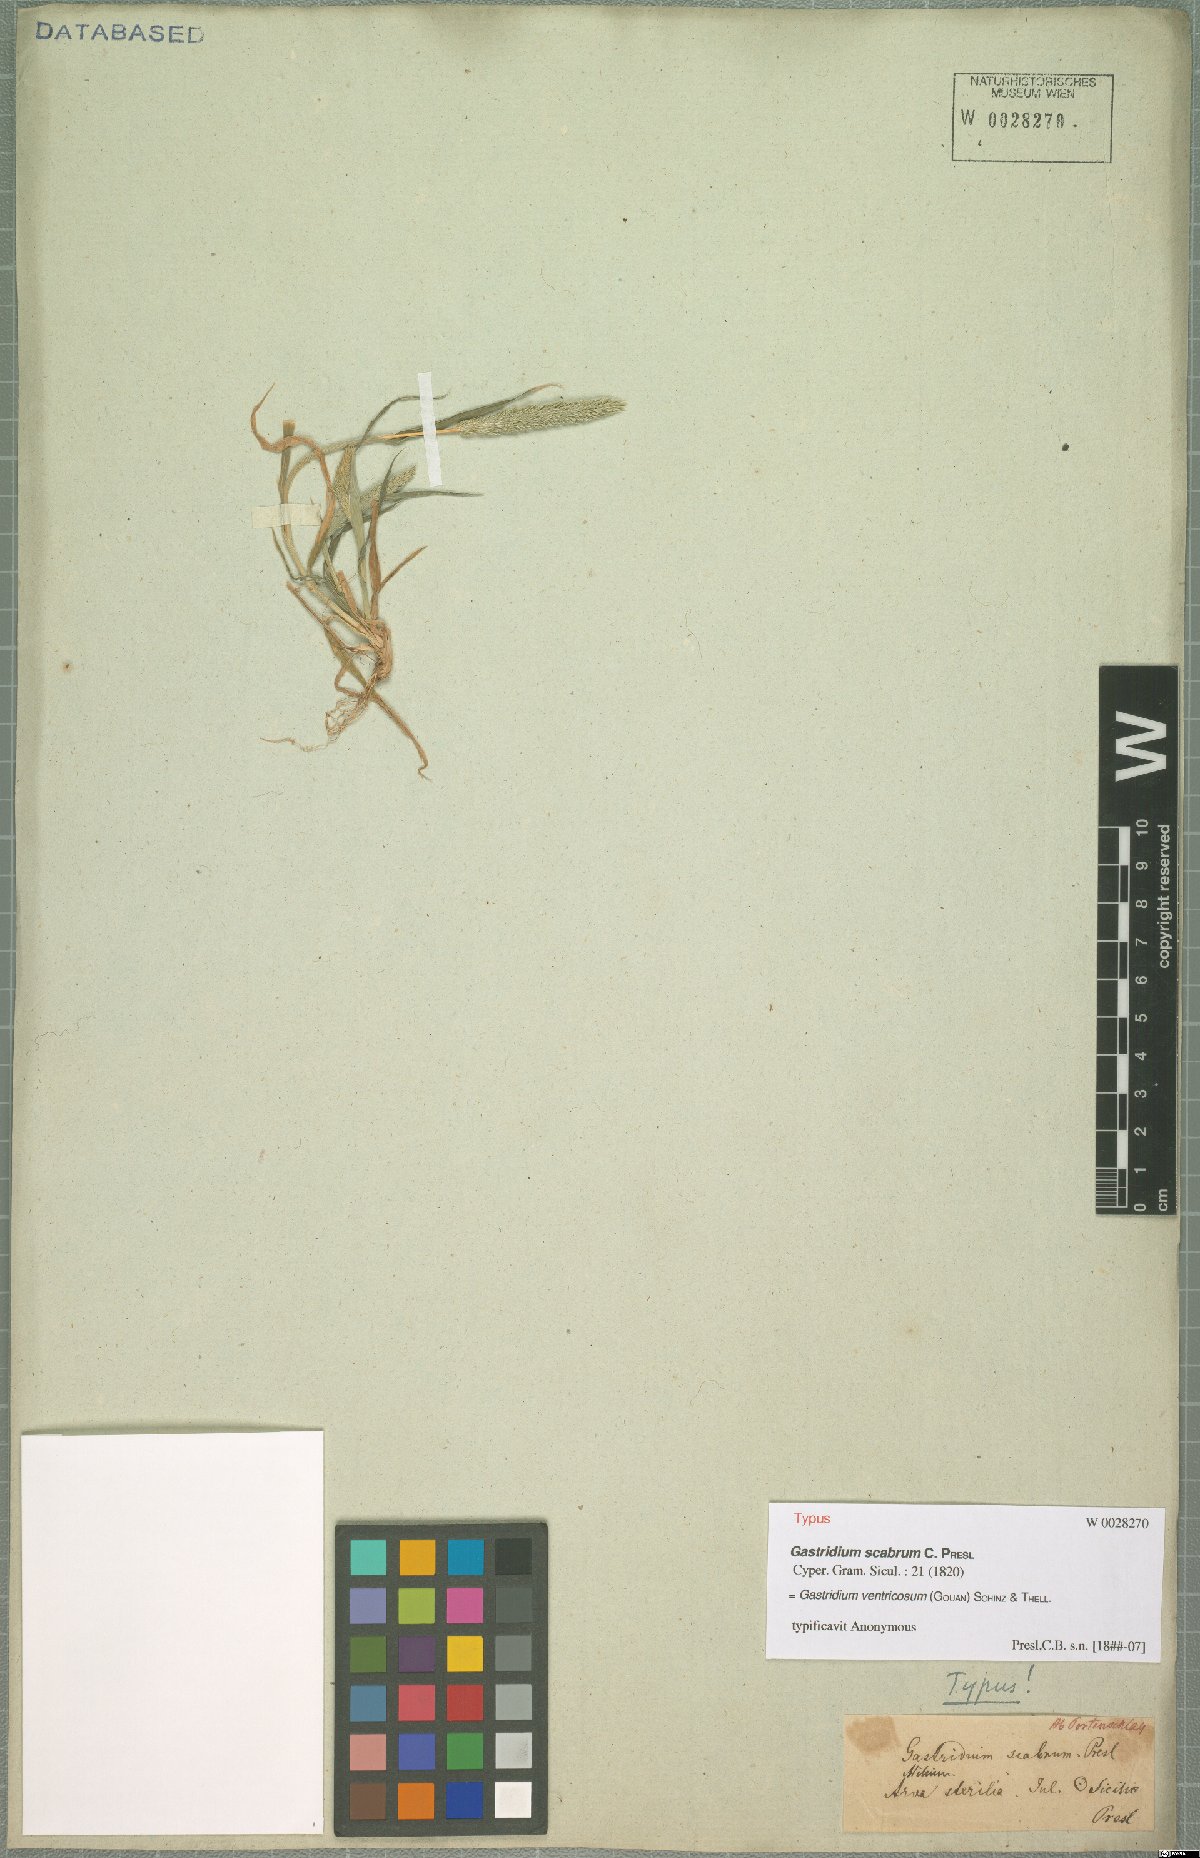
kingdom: Plantae
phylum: Tracheophyta
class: Liliopsida
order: Poales
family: Poaceae
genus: Gastridium
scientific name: Gastridium ventricosum
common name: Nit-grass
